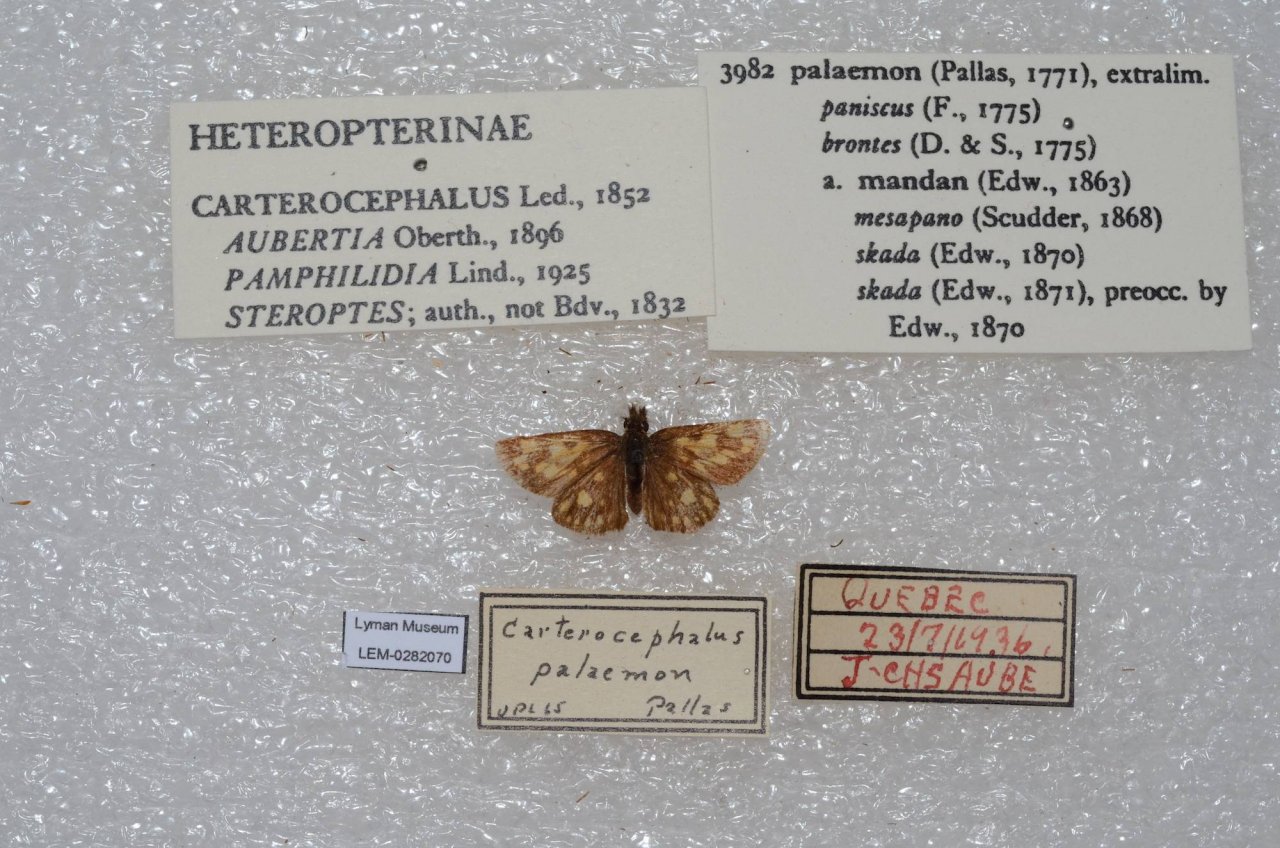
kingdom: Animalia
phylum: Arthropoda
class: Insecta
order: Lepidoptera
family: Hesperiidae
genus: Carterocephalus
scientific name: Carterocephalus palaemon
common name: Chequered Skipper
